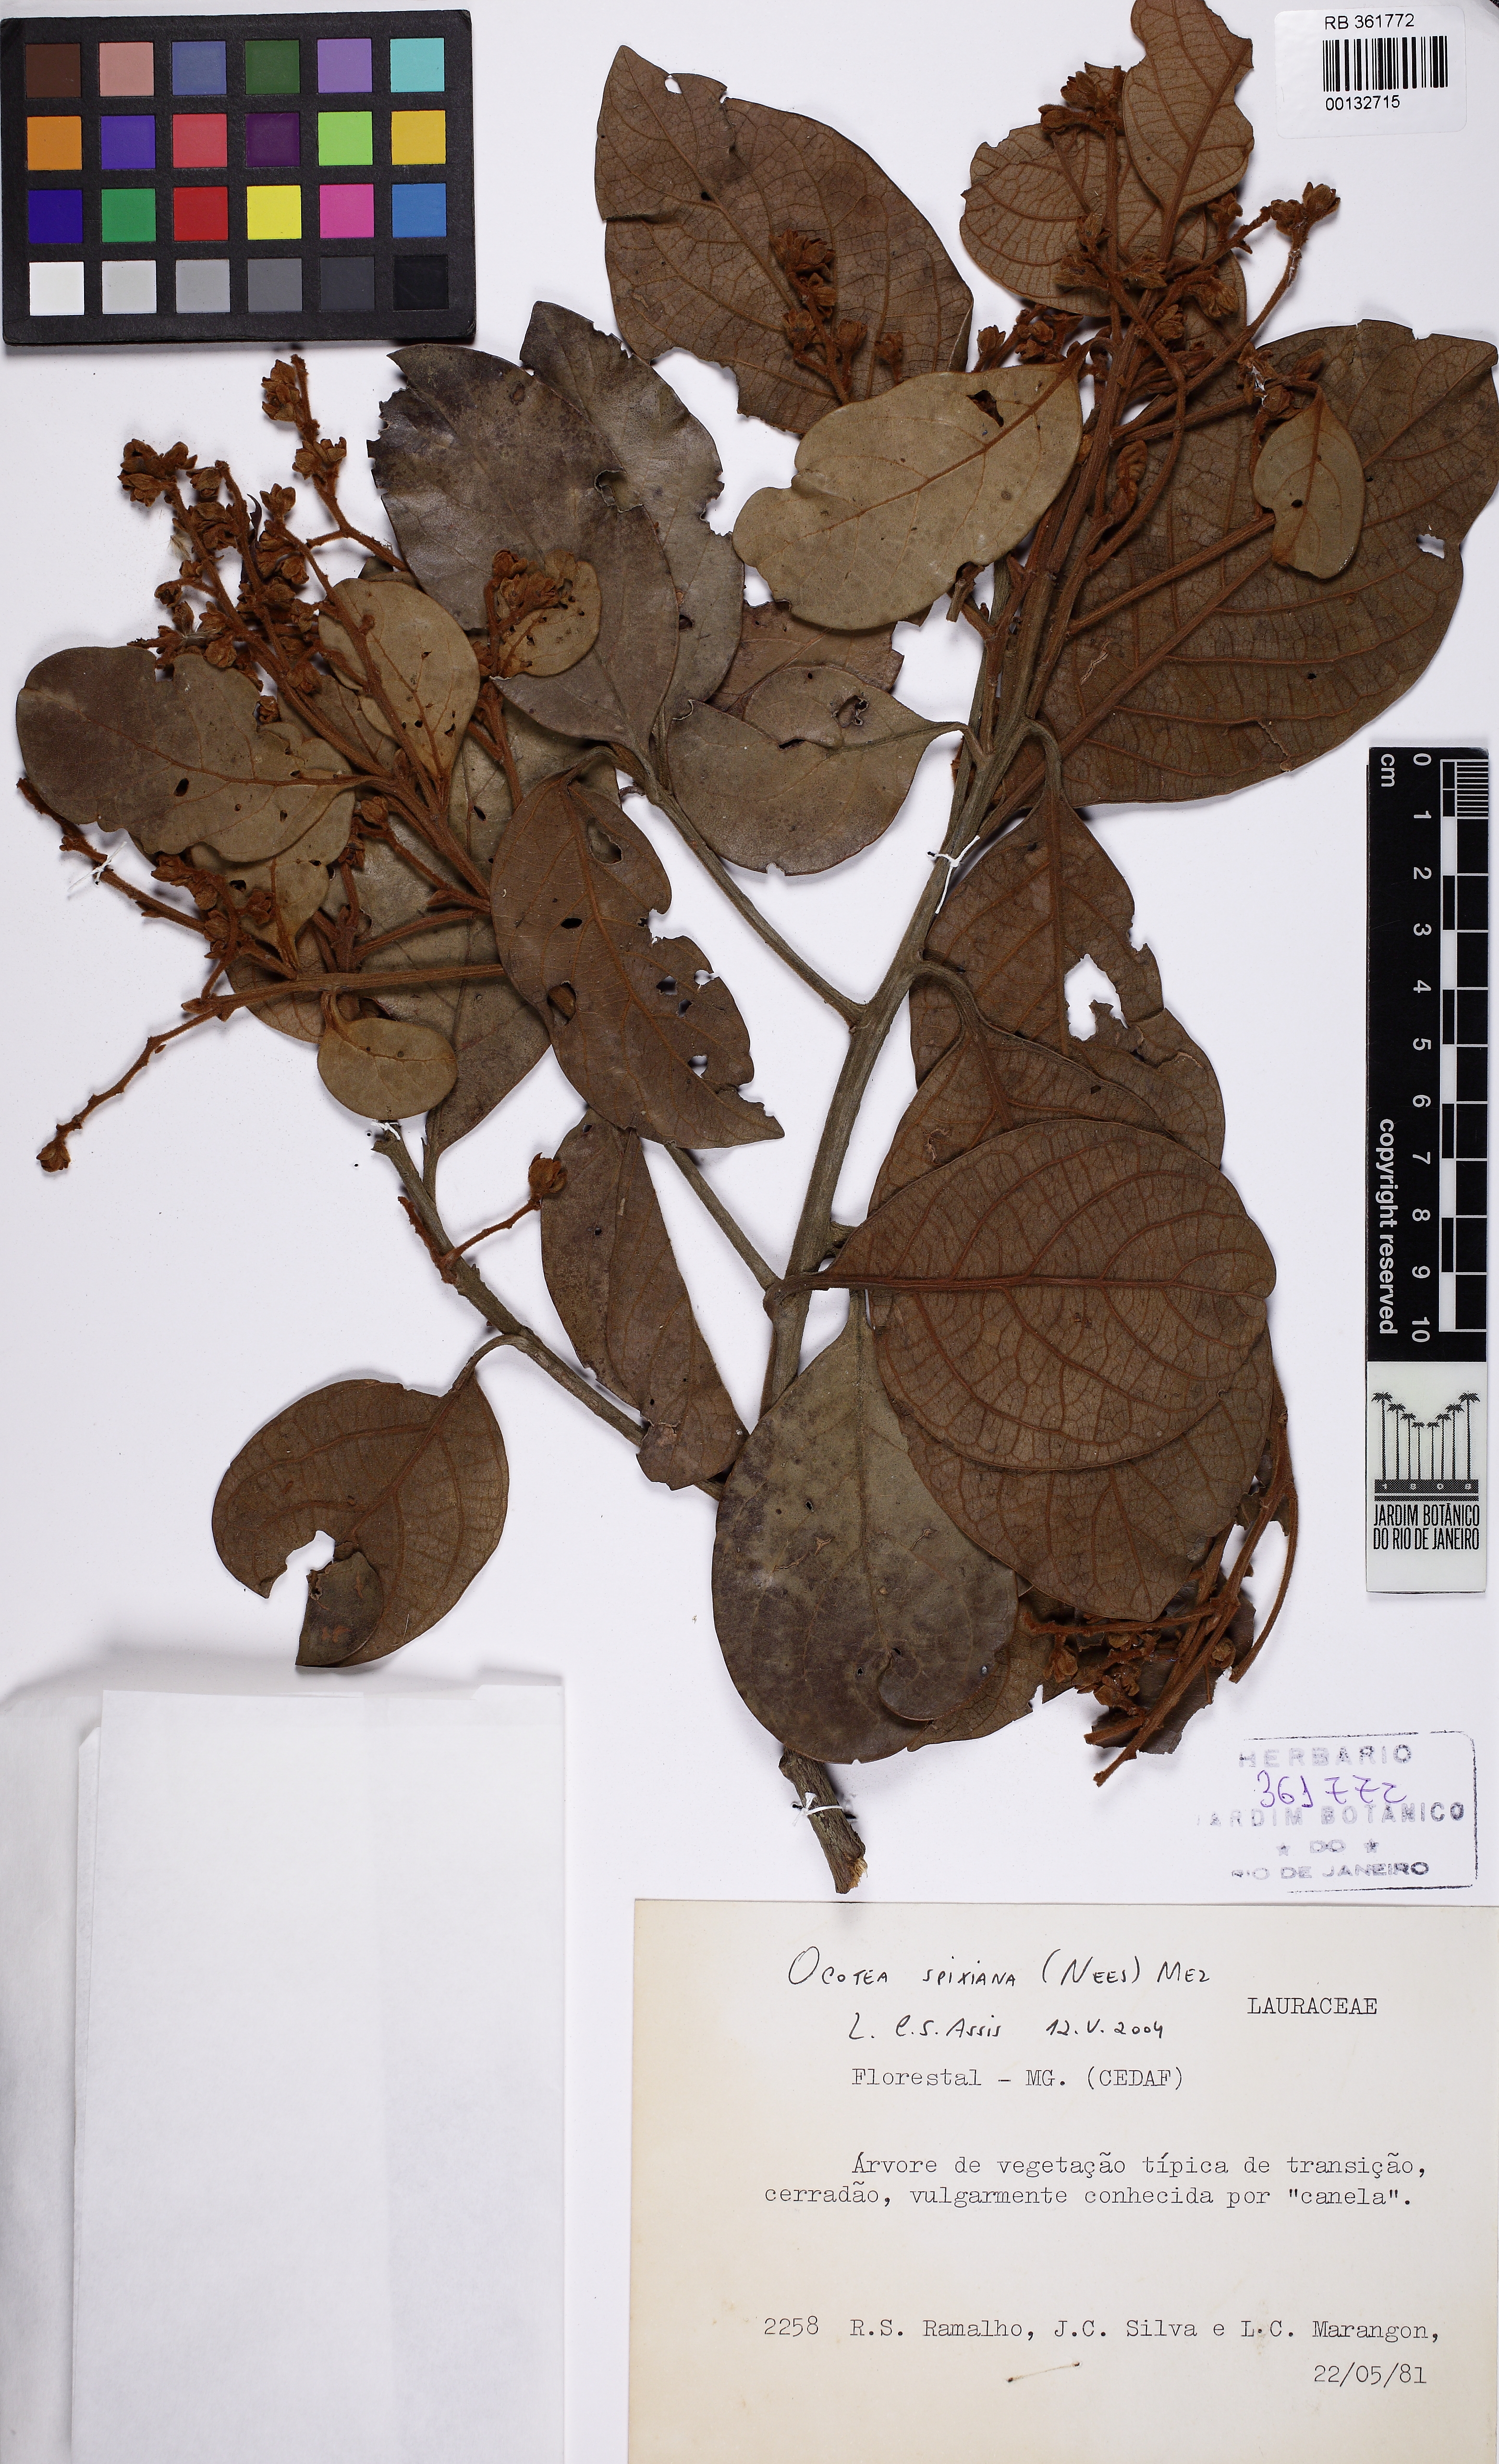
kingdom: Plantae
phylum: Tracheophyta
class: Magnoliopsida
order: Laurales
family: Lauraceae
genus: Ocotea
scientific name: Ocotea spixiana
